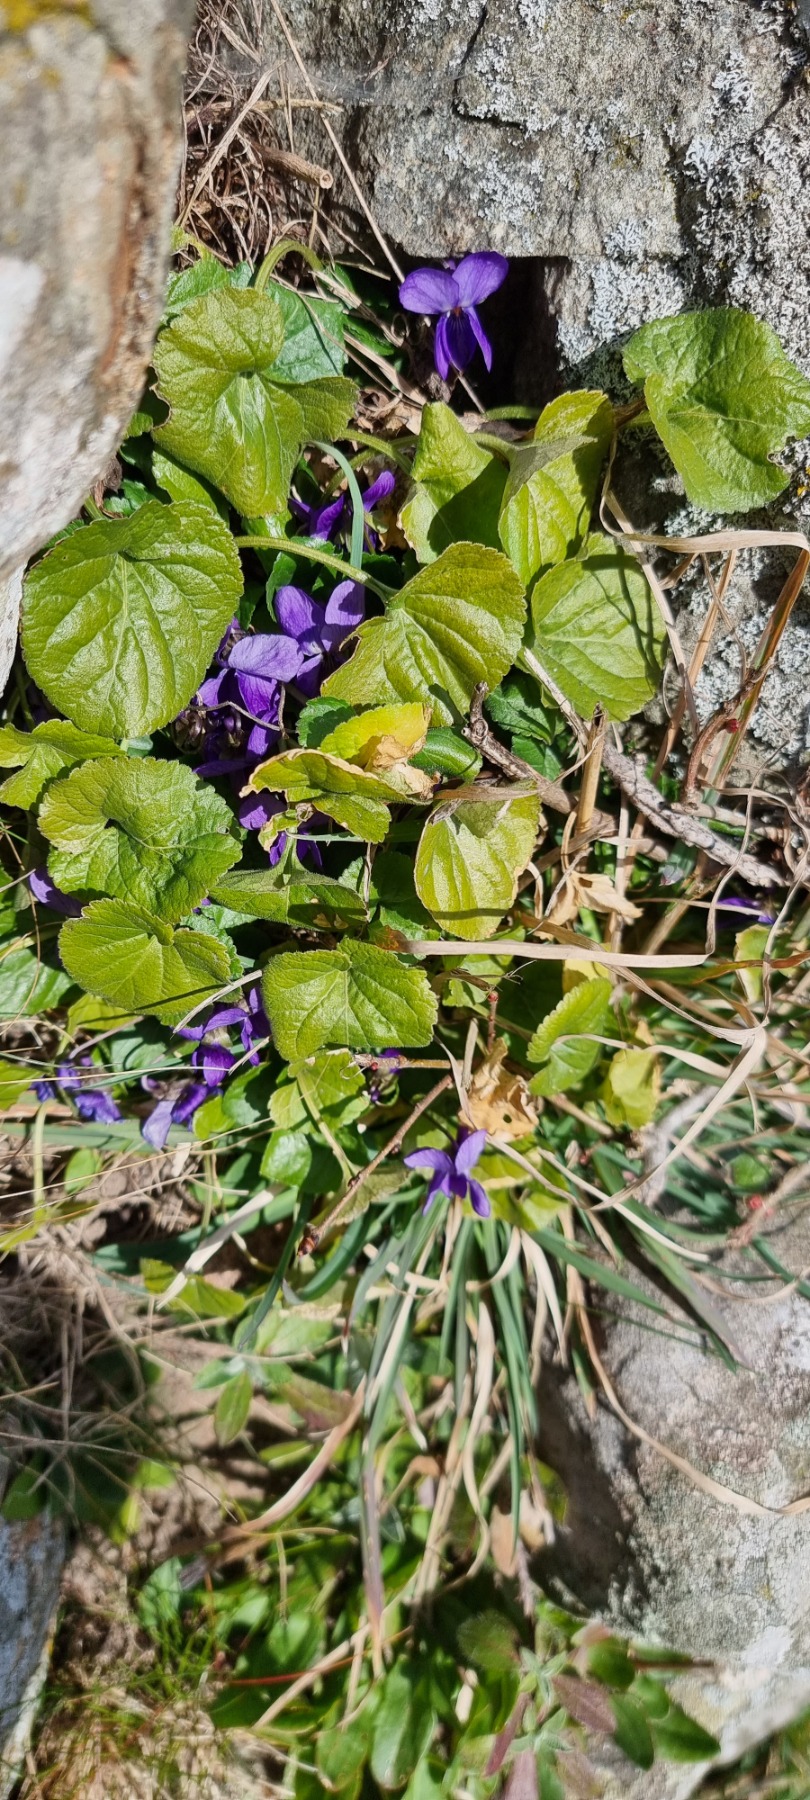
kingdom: Plantae
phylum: Tracheophyta
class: Magnoliopsida
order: Malpighiales
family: Violaceae
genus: Viola
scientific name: Viola odorata
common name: Marts-viol
